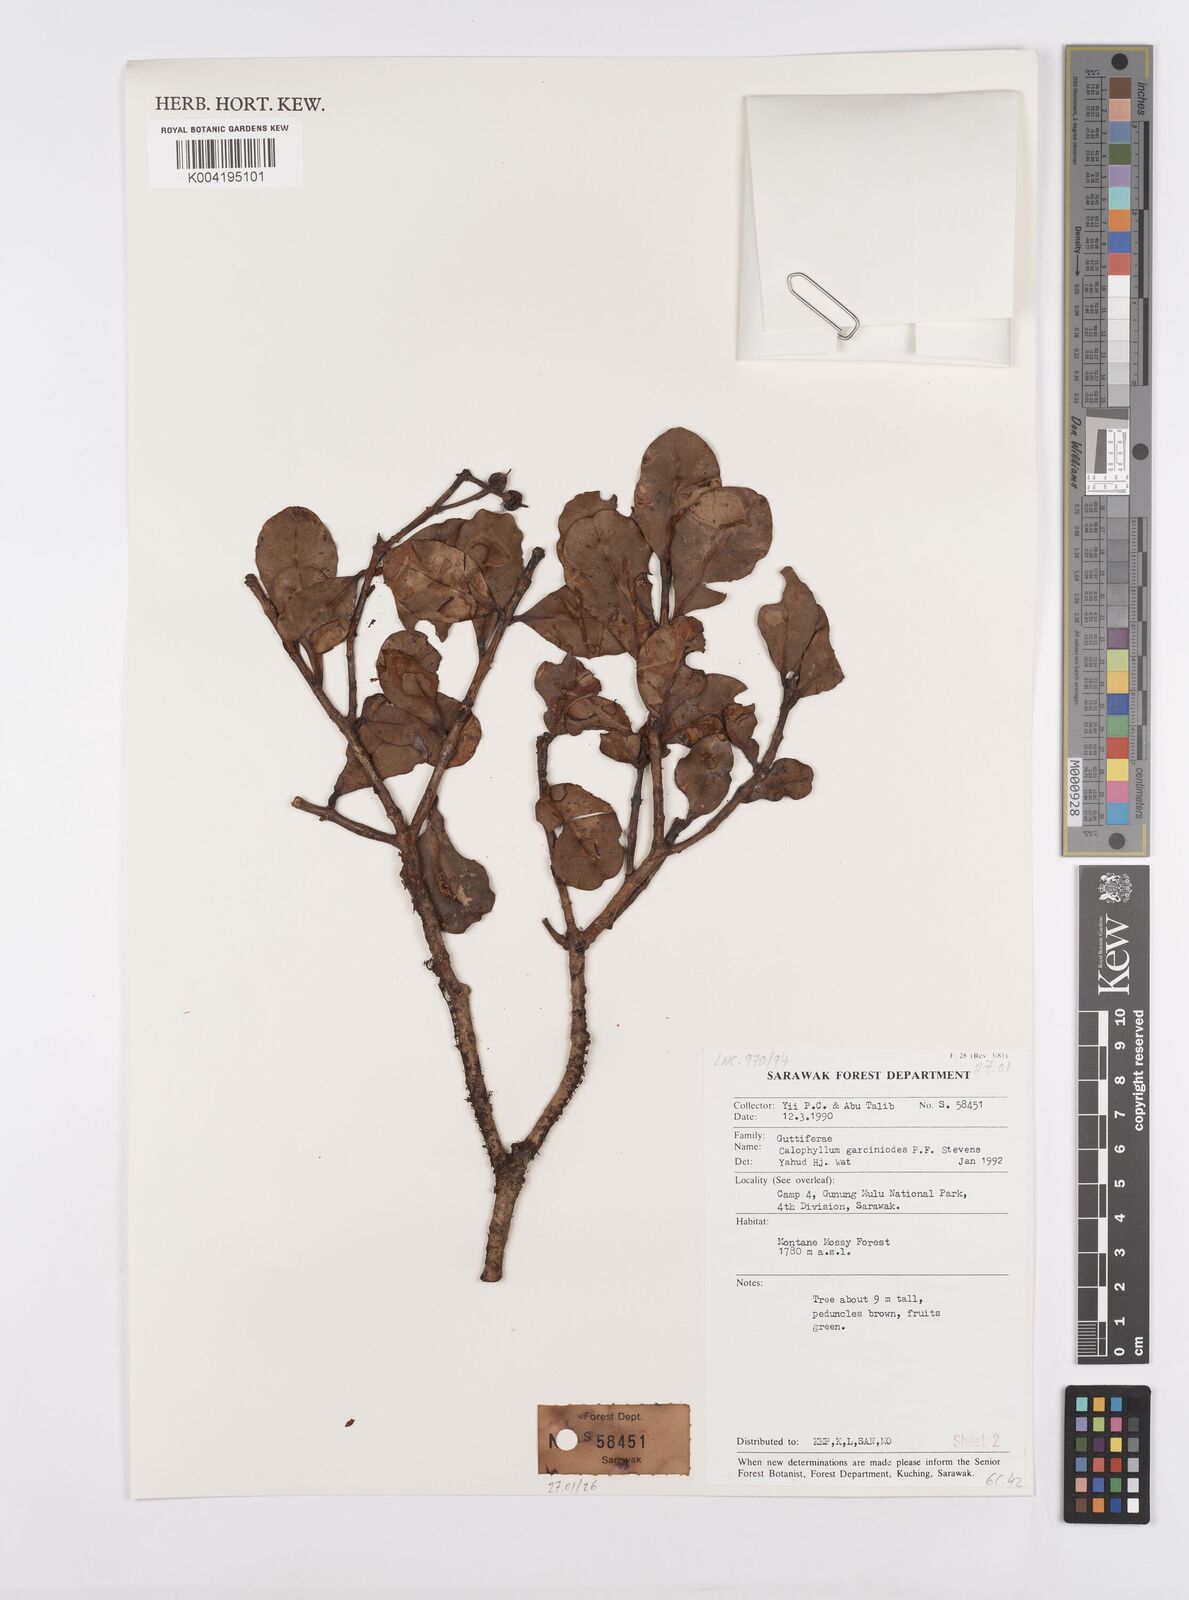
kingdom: Plantae
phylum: Tracheophyta
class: Magnoliopsida
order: Malpighiales
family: Calophyllaceae
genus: Calophyllum
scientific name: Calophyllum garcinioides
